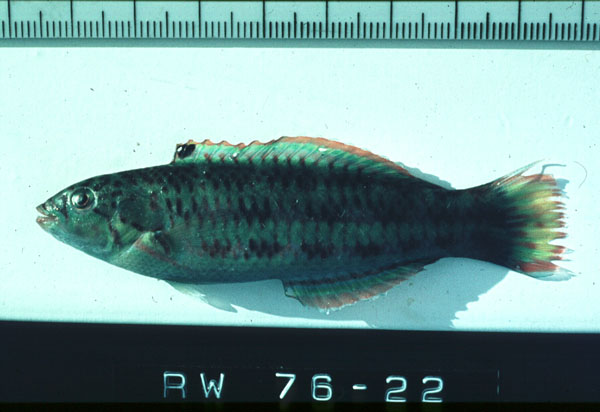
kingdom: Animalia
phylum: Chordata
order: Perciformes
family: Labridae
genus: Thalassoma
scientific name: Thalassoma purpureum
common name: Parrotfish
